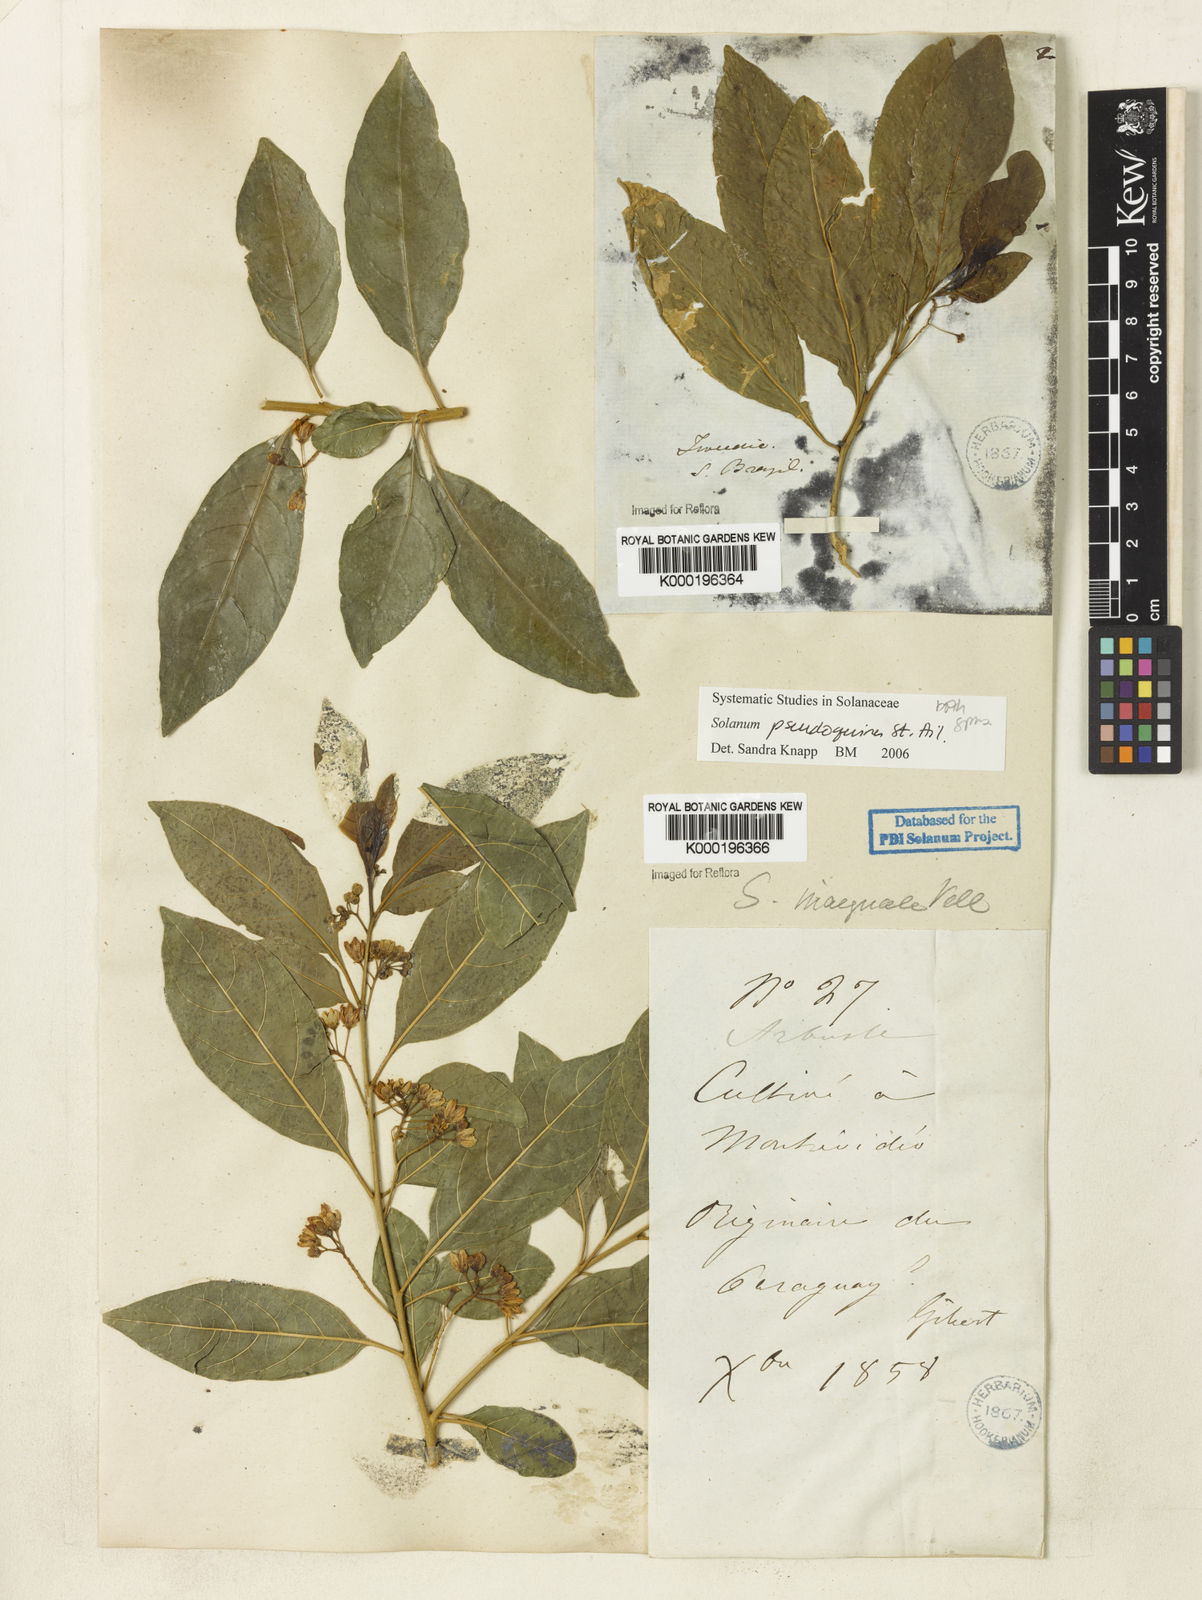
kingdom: Plantae
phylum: Tracheophyta
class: Magnoliopsida
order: Solanales
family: Solanaceae
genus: Solanum
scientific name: Solanum pseudoquina
